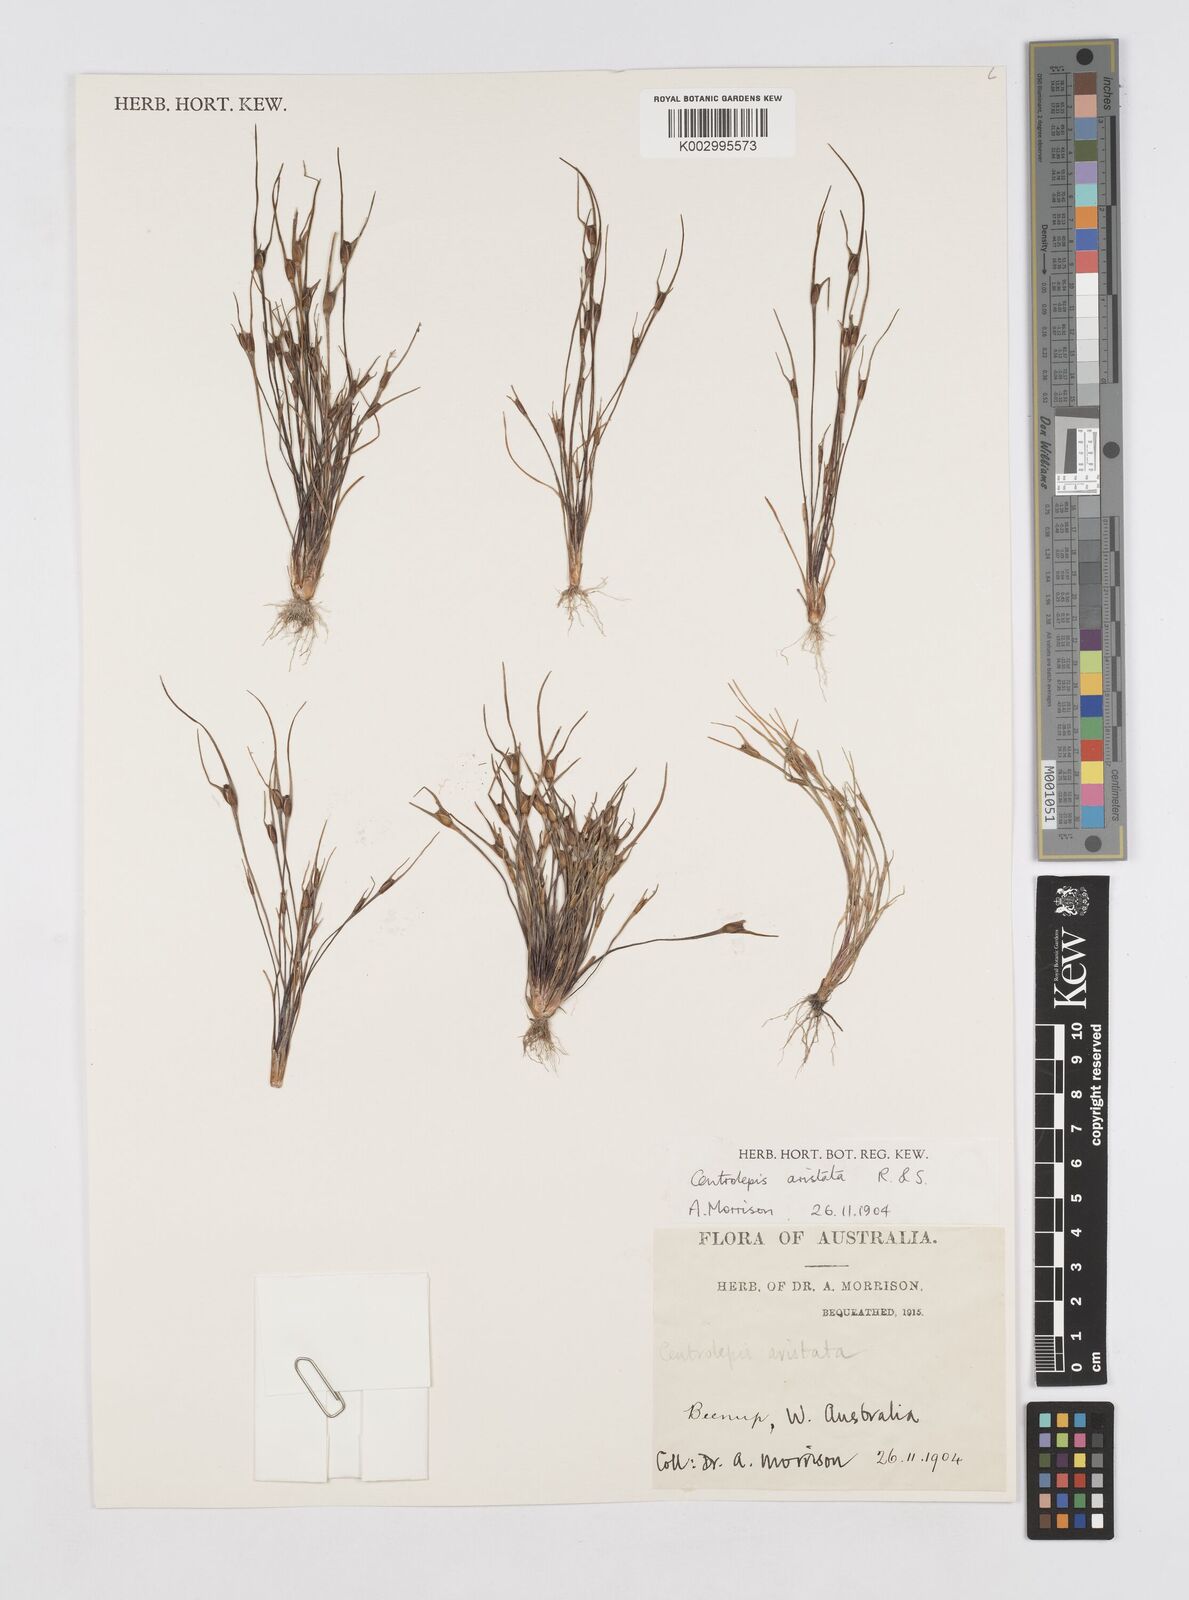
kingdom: Plantae
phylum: Tracheophyta
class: Liliopsida
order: Poales
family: Restionaceae
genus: Centrolepis
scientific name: Centrolepis aristata
